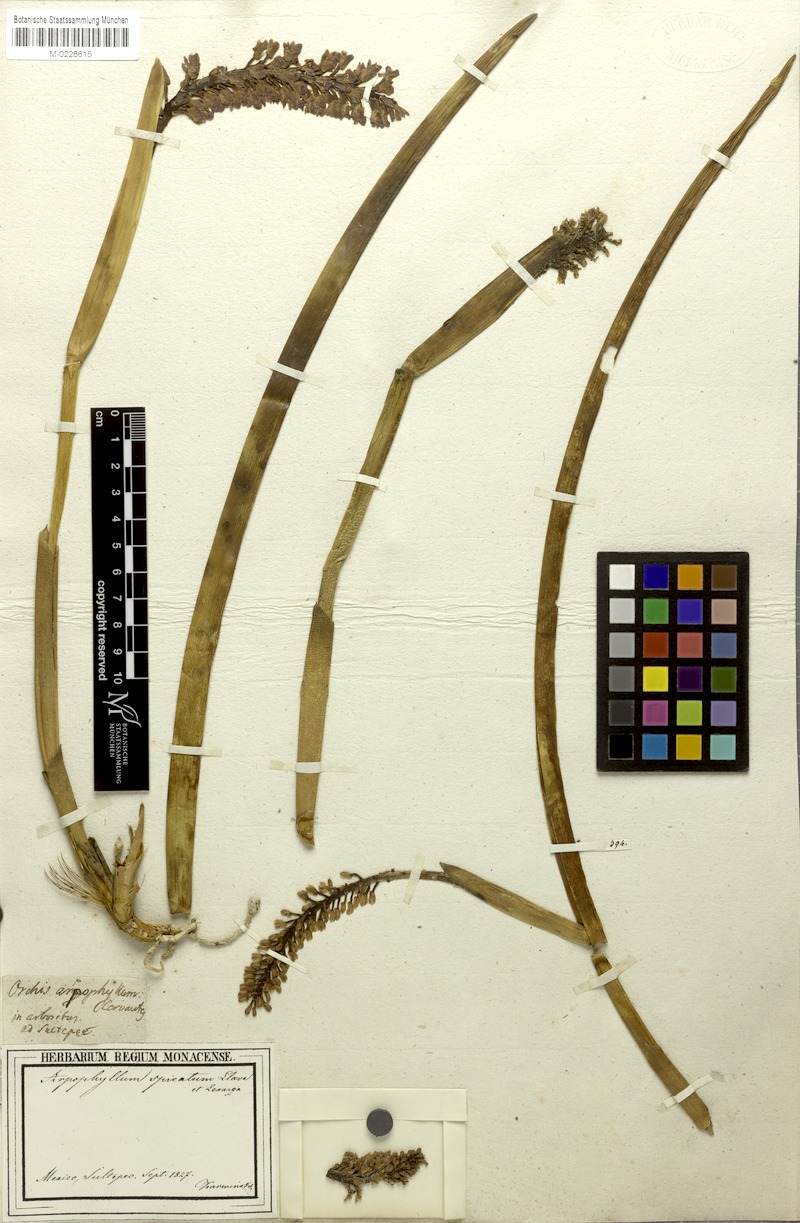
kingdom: Plantae
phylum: Tracheophyta
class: Liliopsida
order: Asparagales
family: Orchidaceae
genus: Arpophyllum
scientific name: Arpophyllum spicatum
